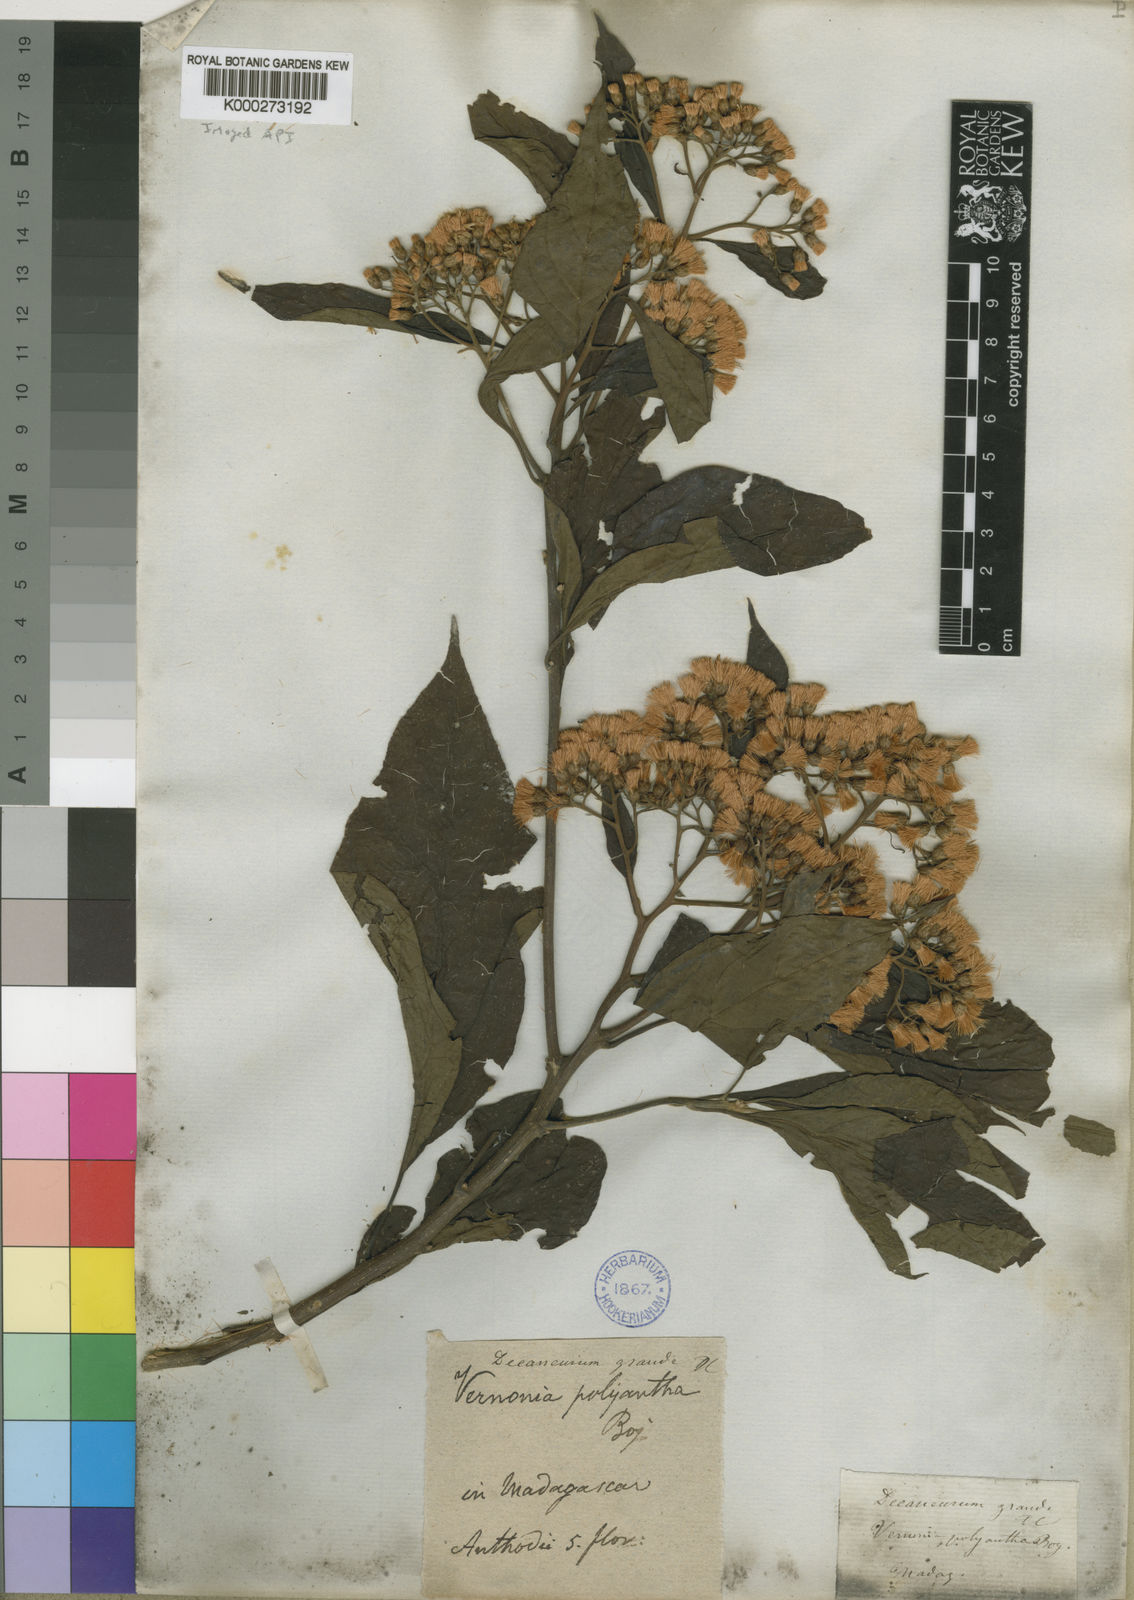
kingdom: Plantae
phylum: Tracheophyta
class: Magnoliopsida
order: Asterales
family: Asteraceae
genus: Vernonia
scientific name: Vernonia
